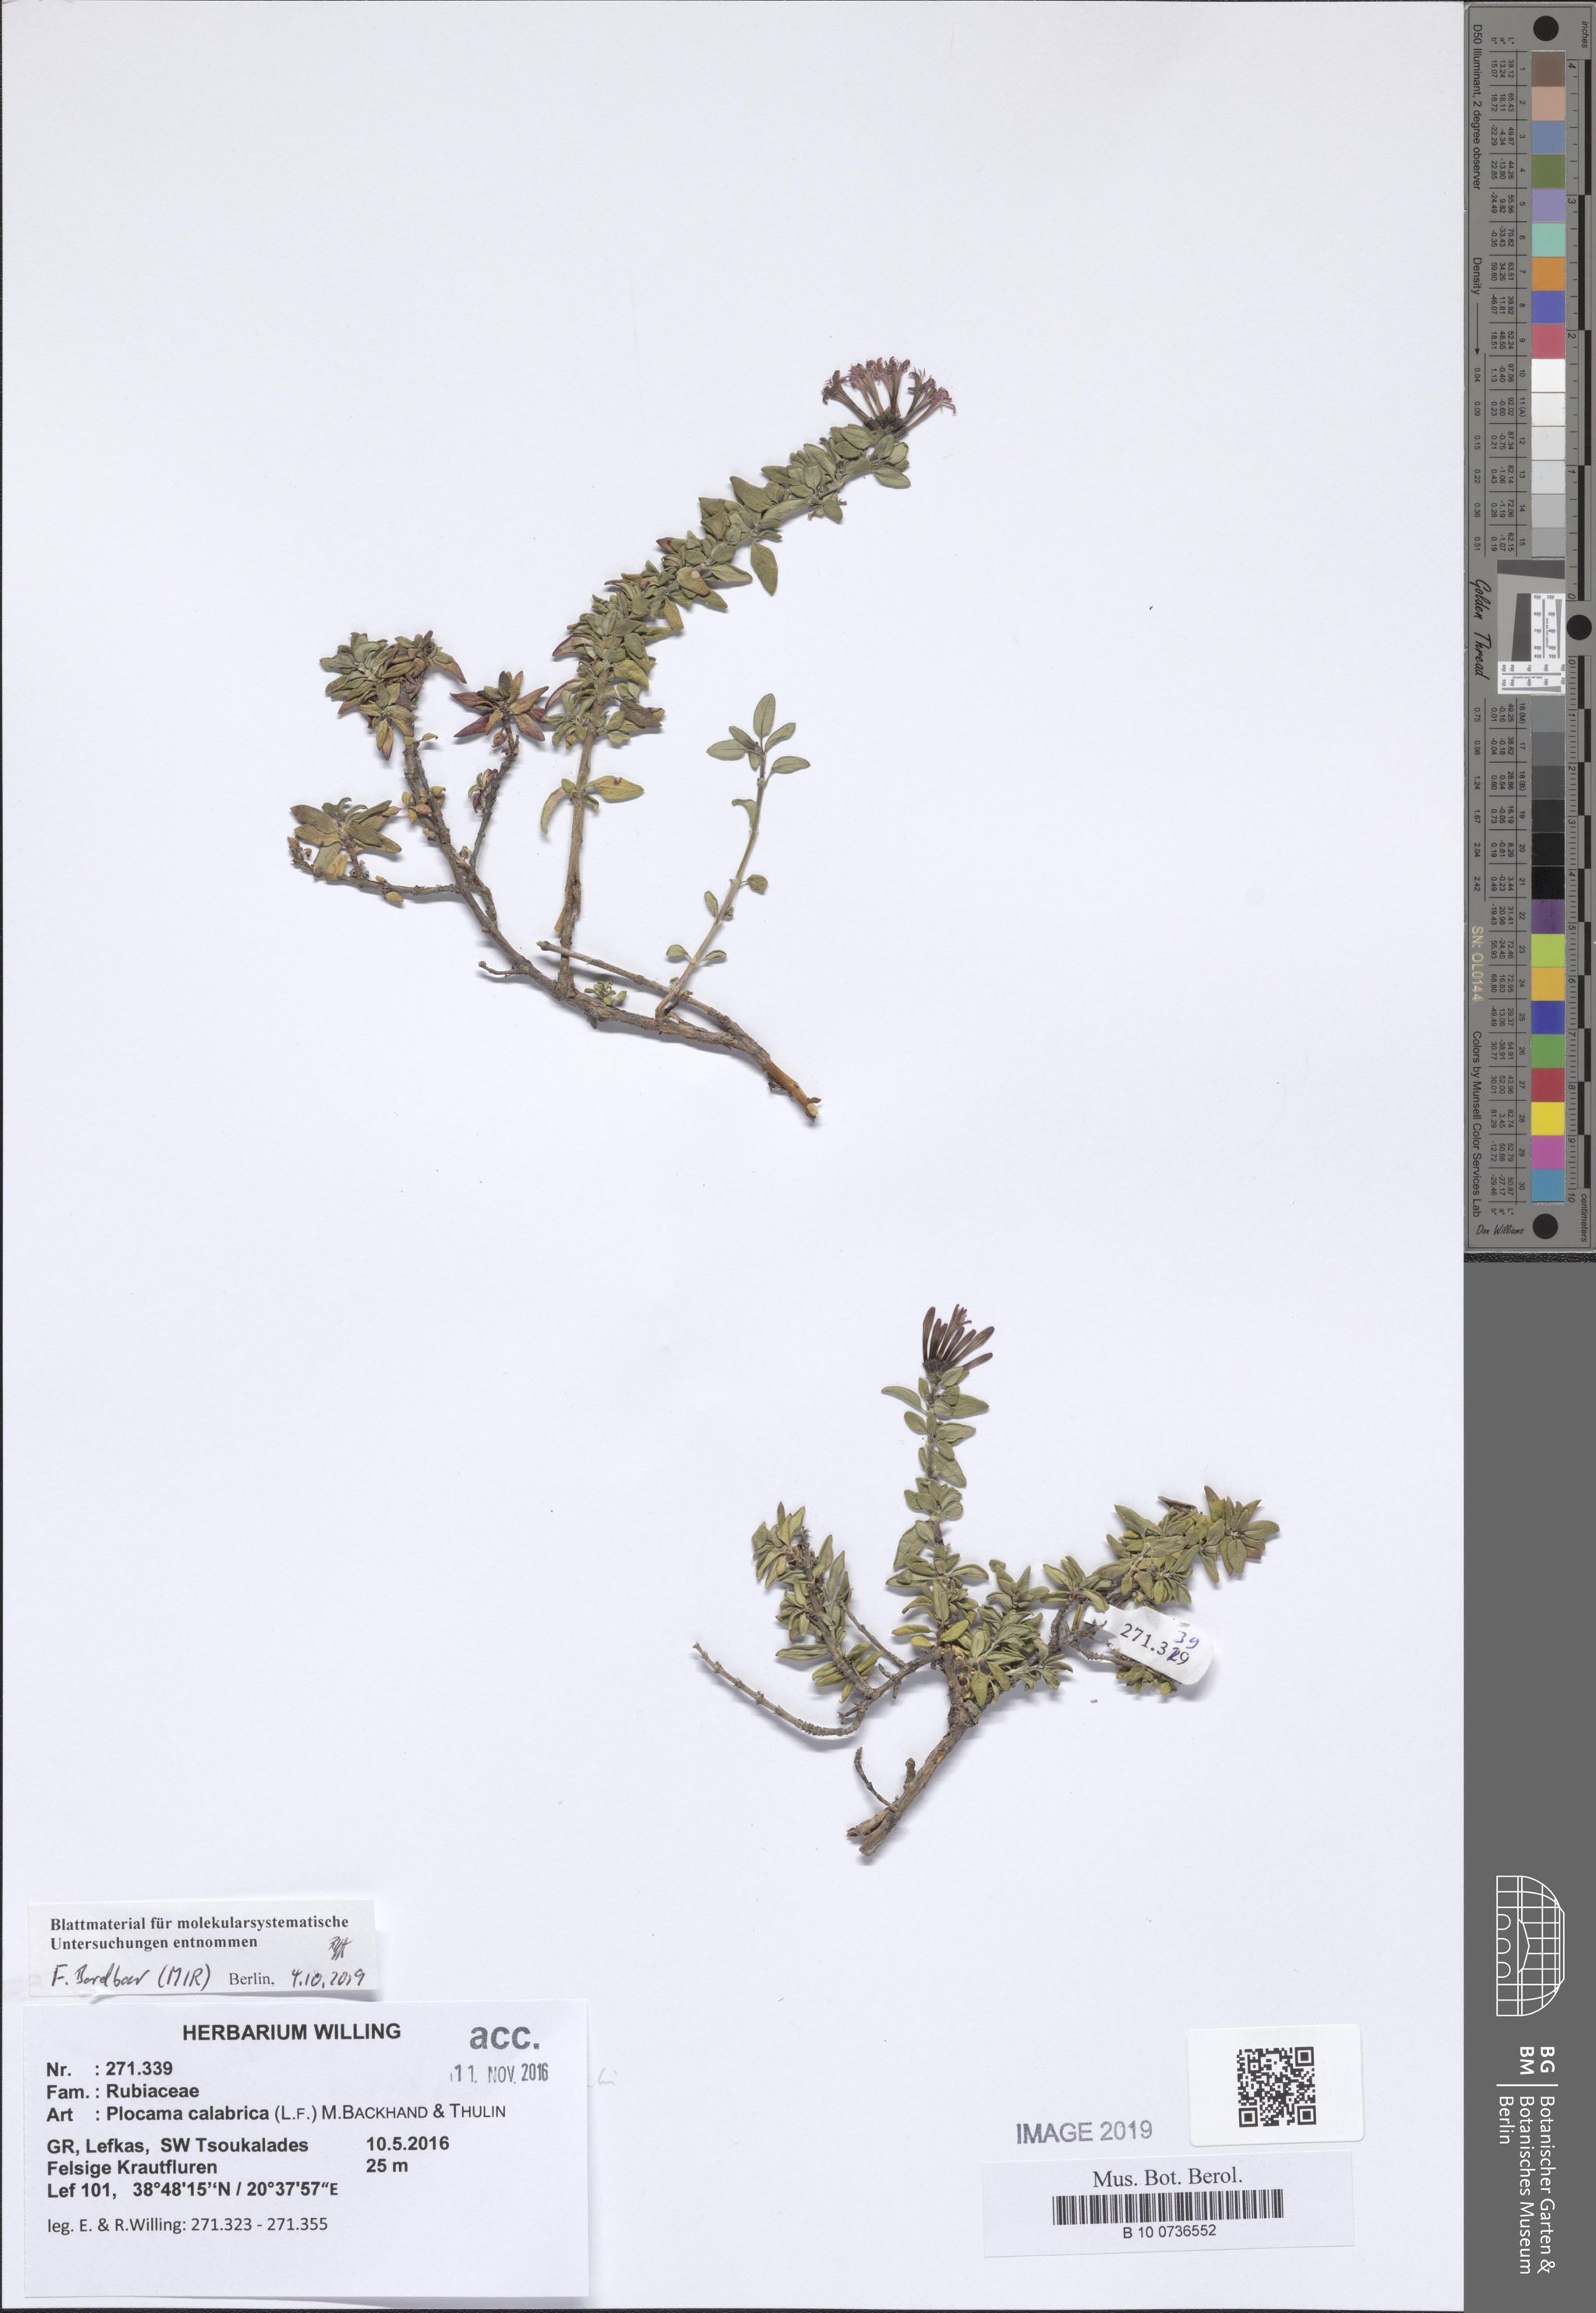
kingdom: Plantae
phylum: Tracheophyta
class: Magnoliopsida
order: Gentianales
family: Rubiaceae
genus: Plocama
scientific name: Plocama calabrica
